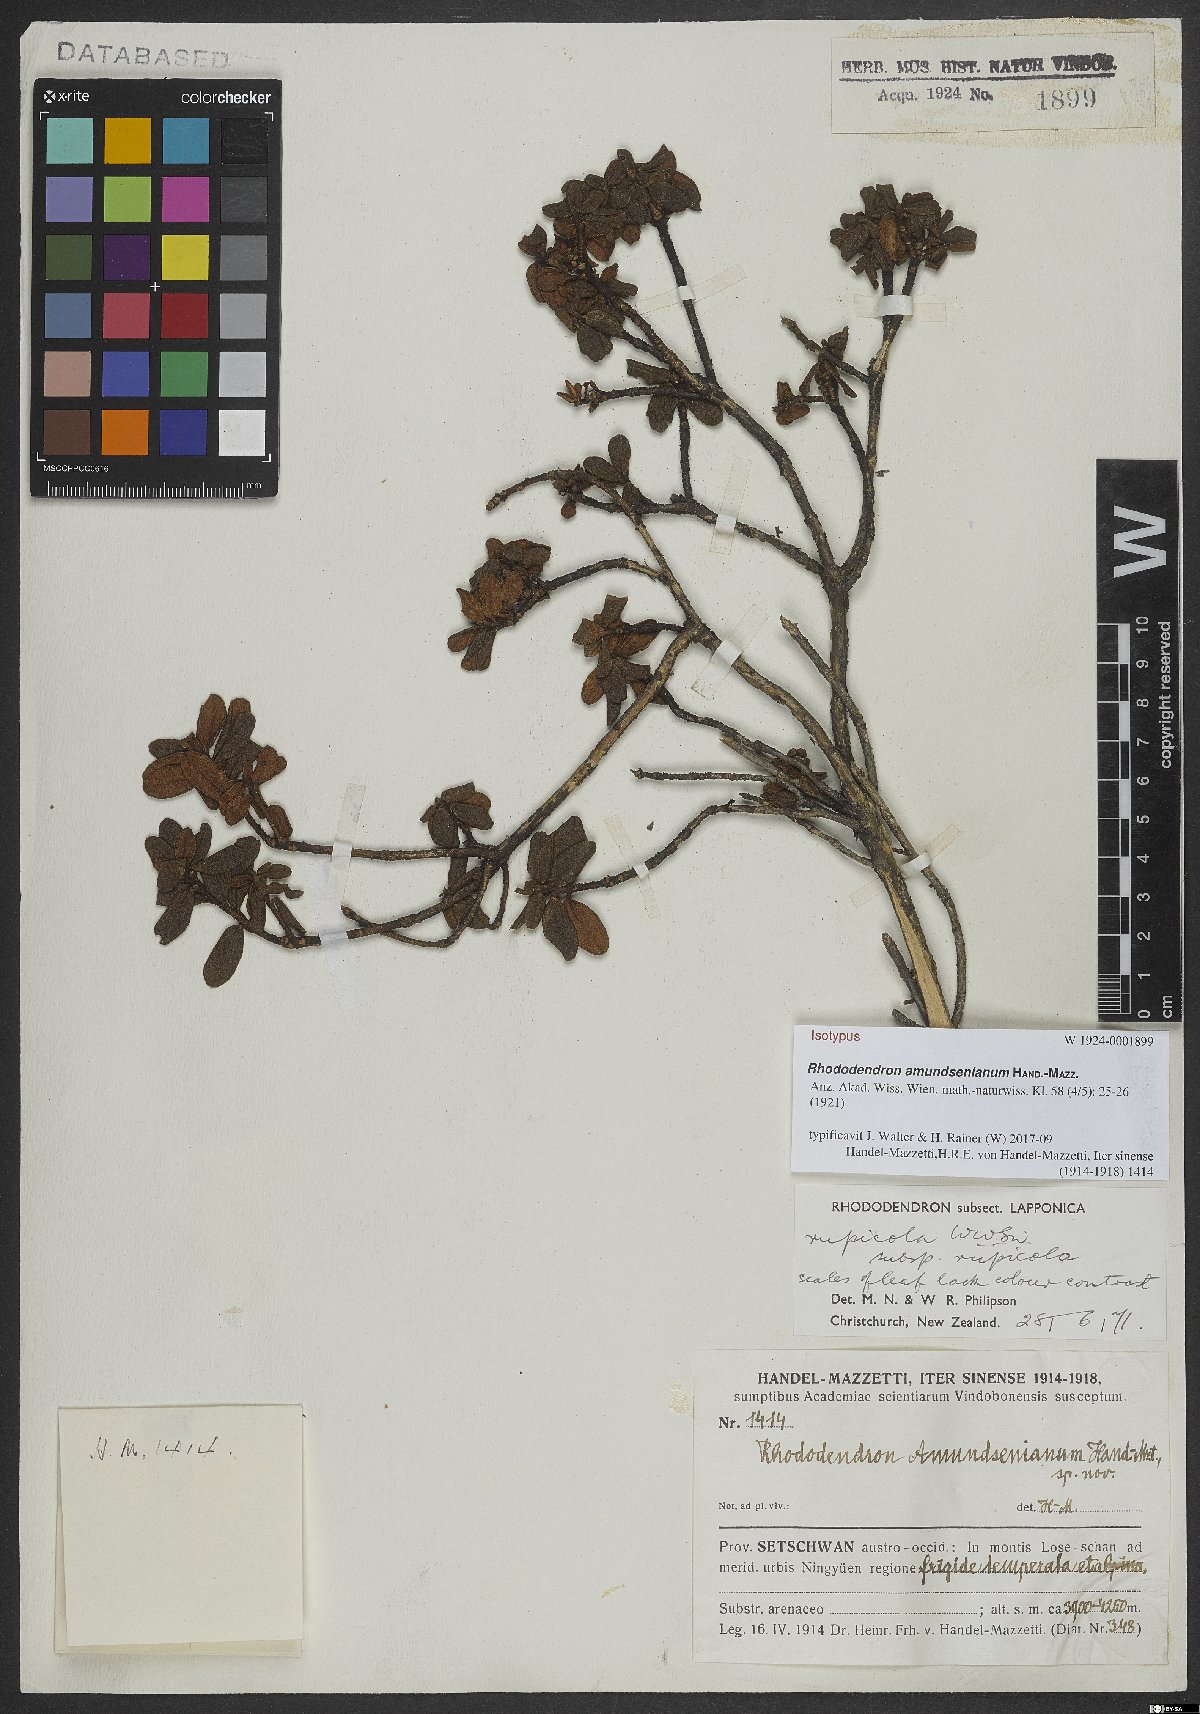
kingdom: Plantae
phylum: Tracheophyta
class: Magnoliopsida
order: Ericales
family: Ericaceae
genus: Rhododendron
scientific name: Rhododendron amundsenianum
